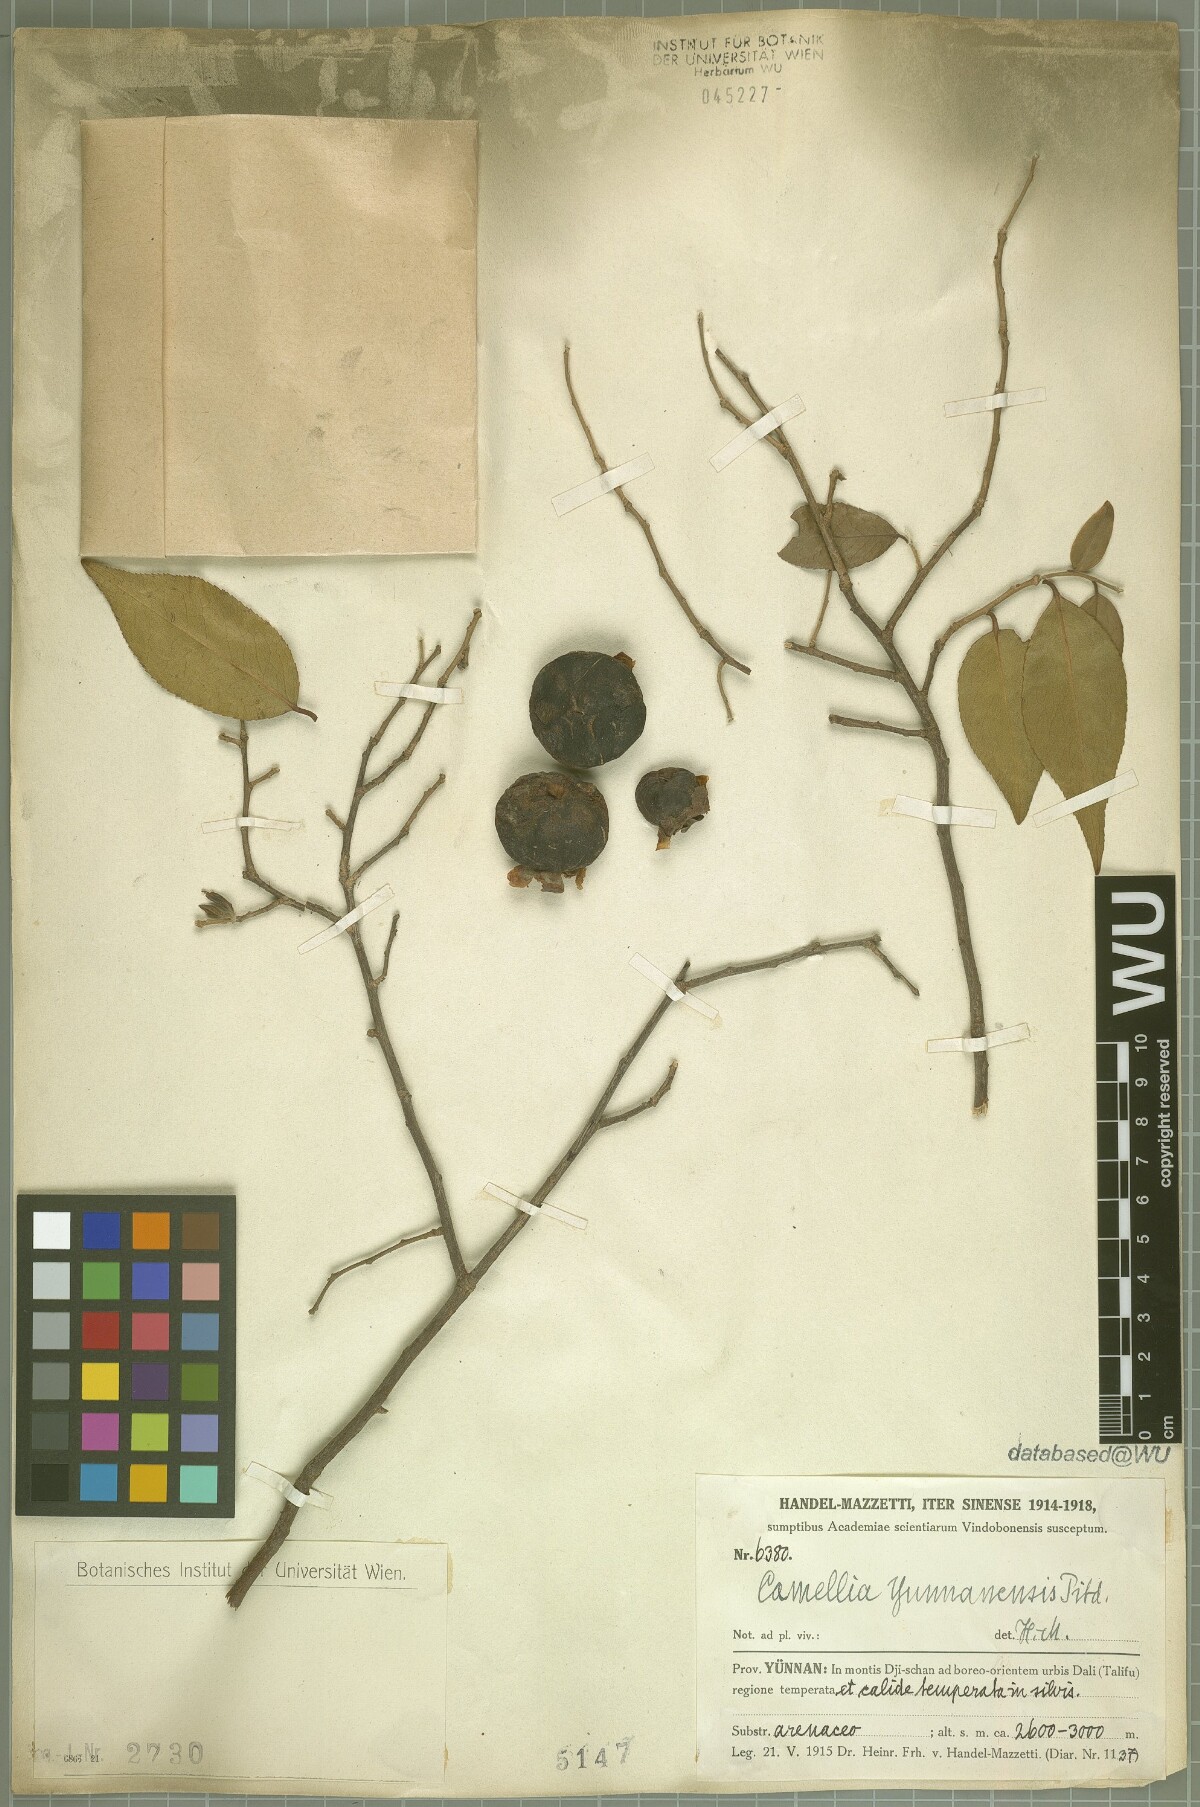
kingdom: Plantae
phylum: Tracheophyta
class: Magnoliopsida
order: Ericales
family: Theaceae
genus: Camellia
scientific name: Camellia yunnanensis
